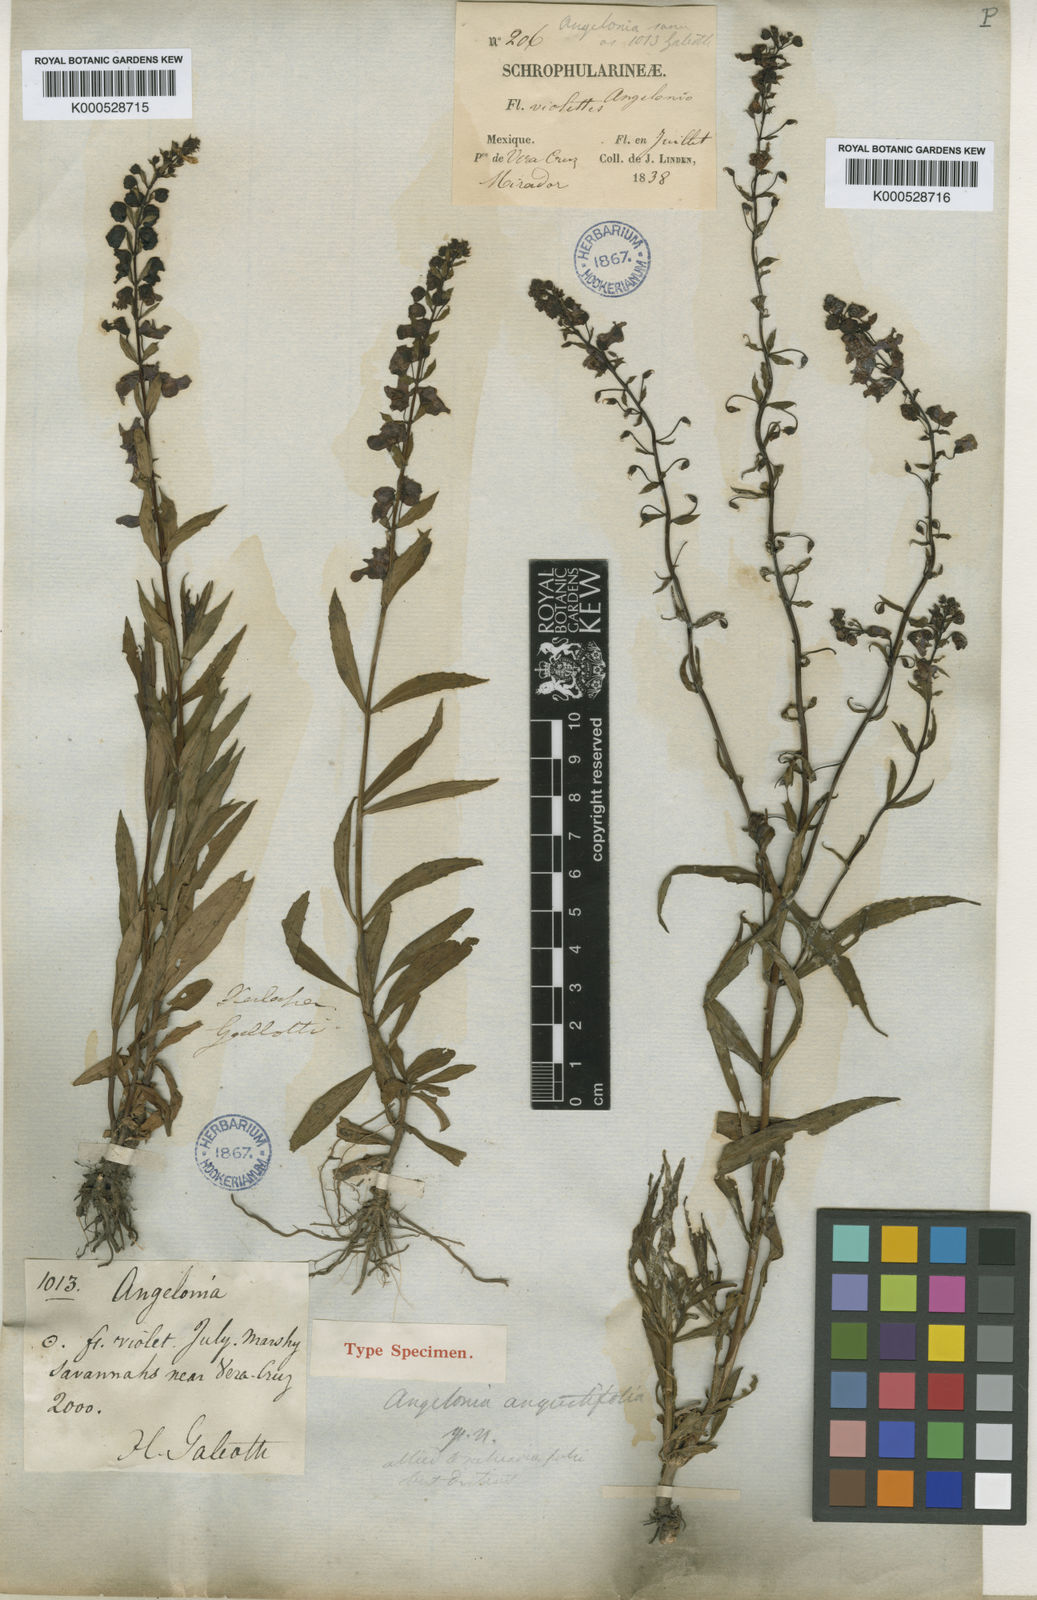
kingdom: Plantae
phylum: Tracheophyta
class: Magnoliopsida
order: Lamiales
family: Plantaginaceae
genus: Angelonia
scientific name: Angelonia angustifolia
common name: Narrowleaf angelon
